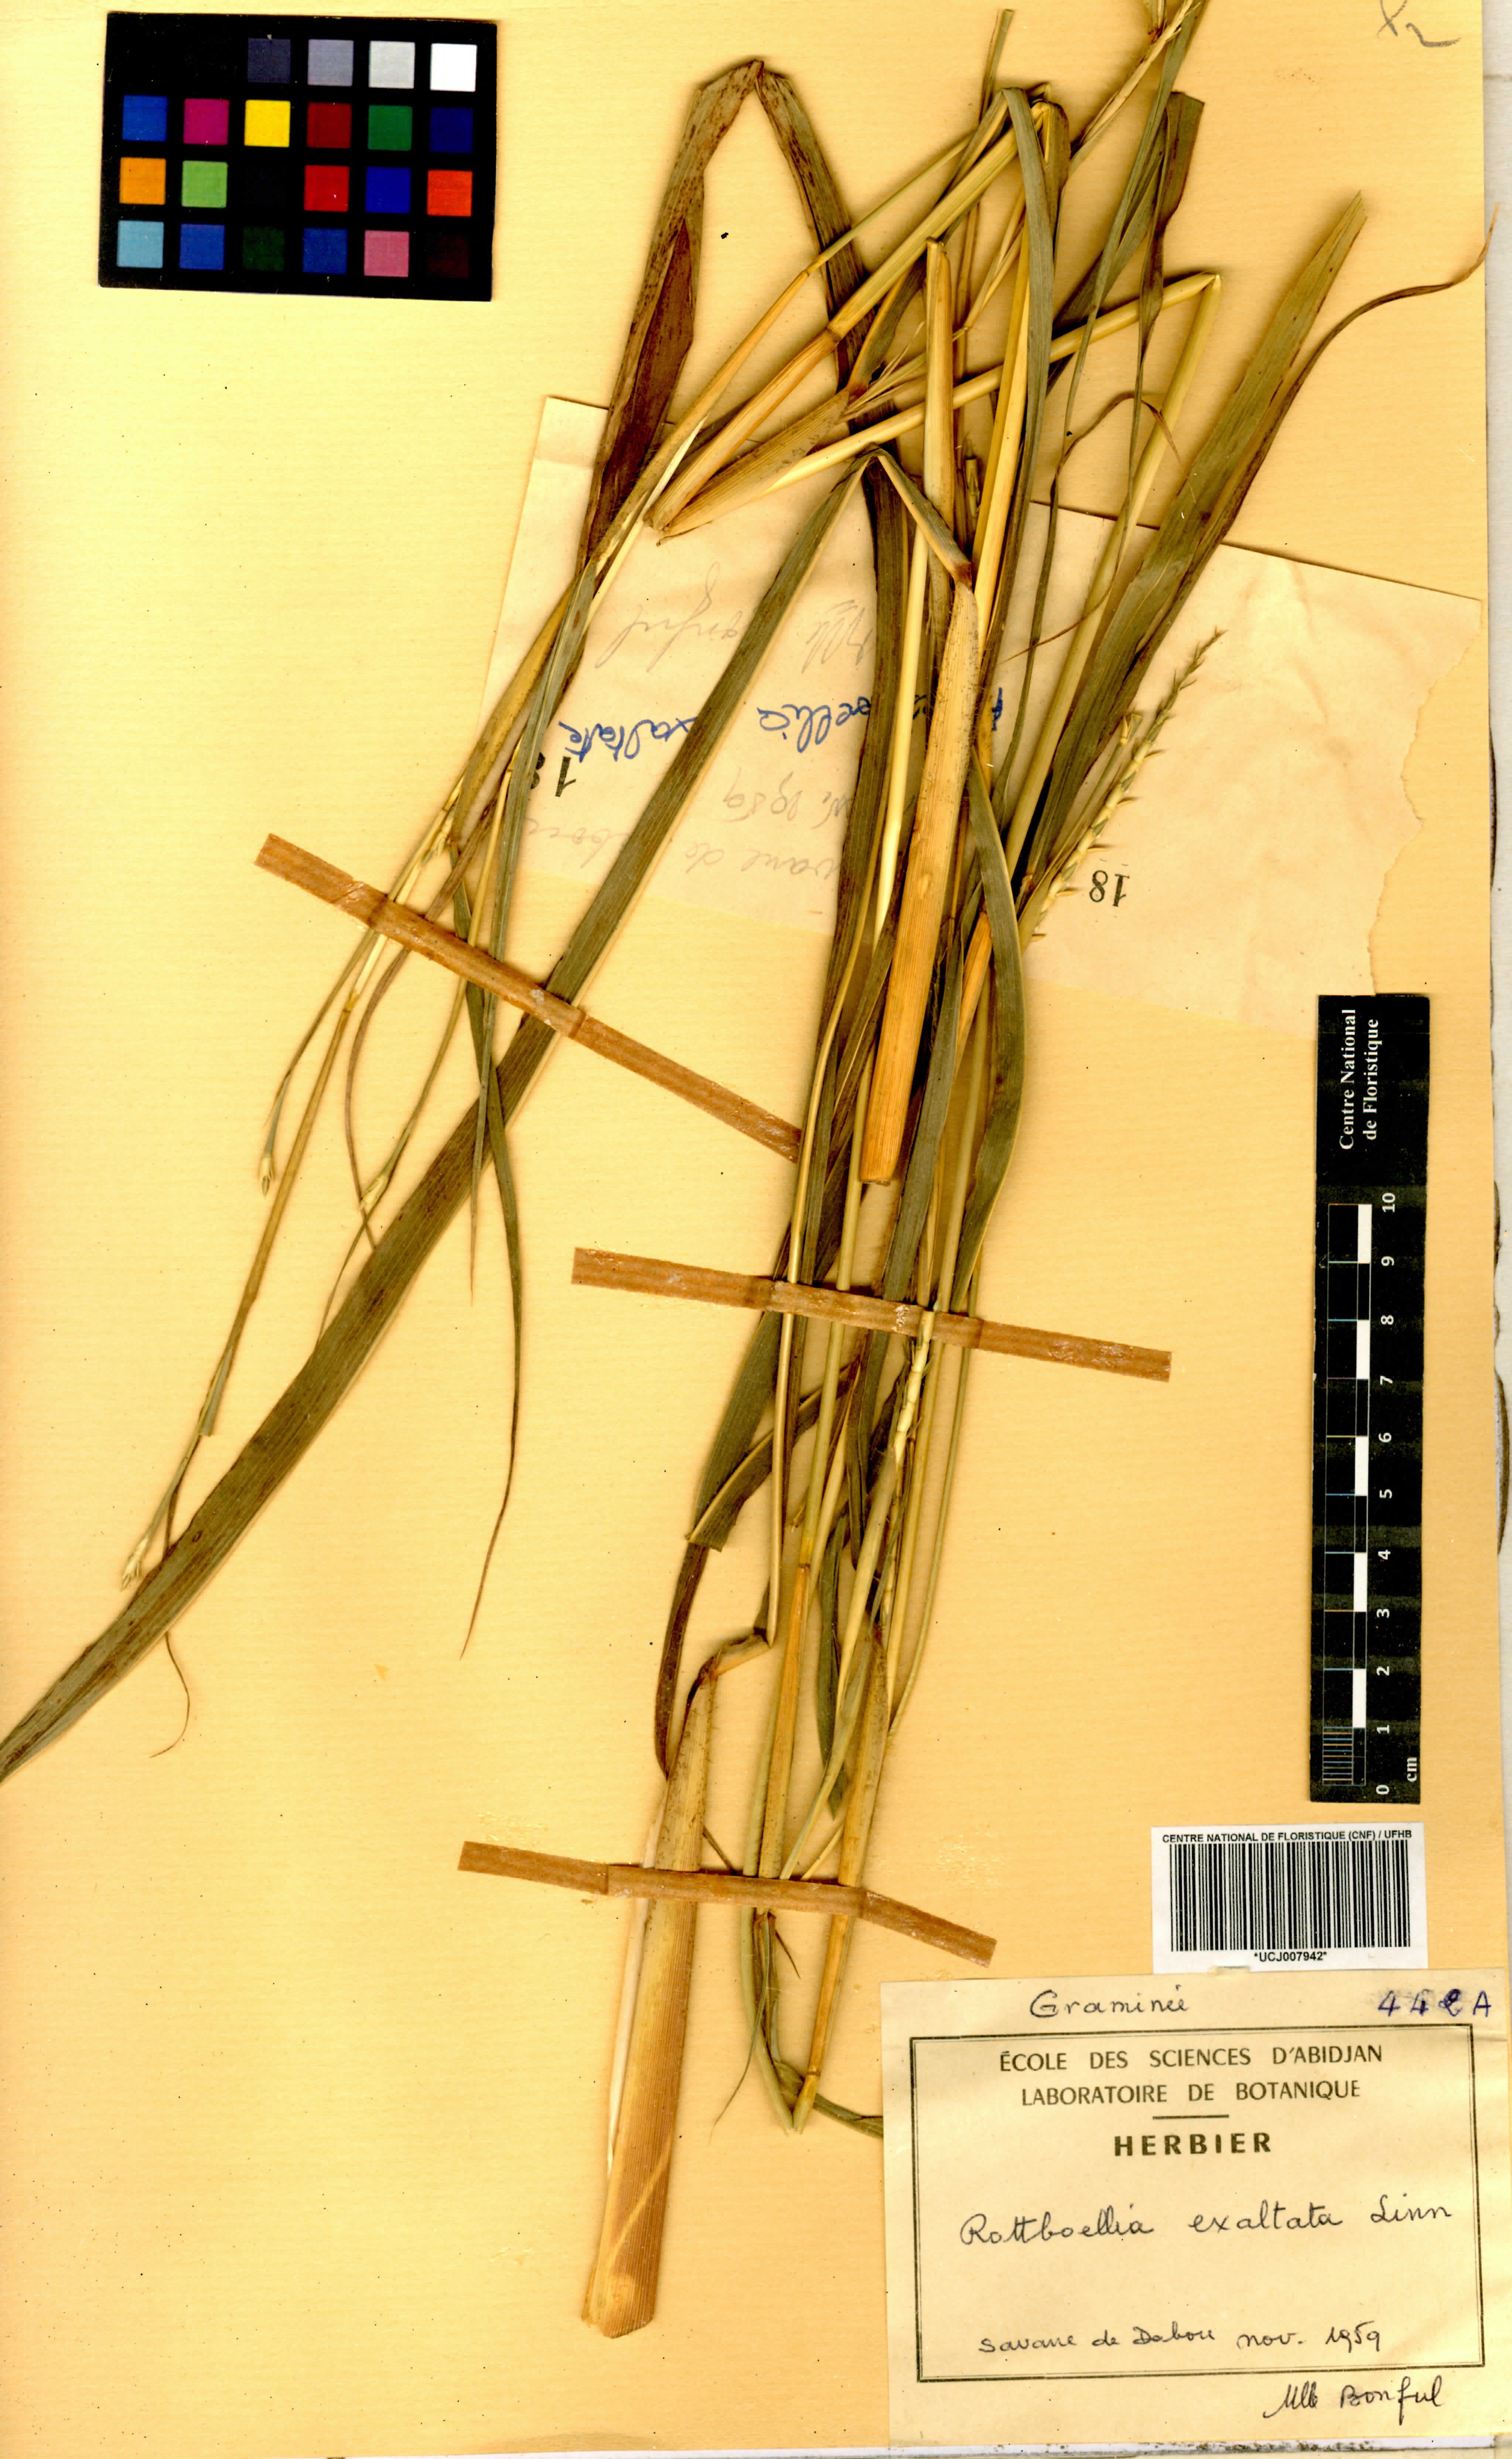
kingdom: Plantae
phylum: Tracheophyta
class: Liliopsida
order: Poales
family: Poaceae
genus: Rottboellia
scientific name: Rottboellia
